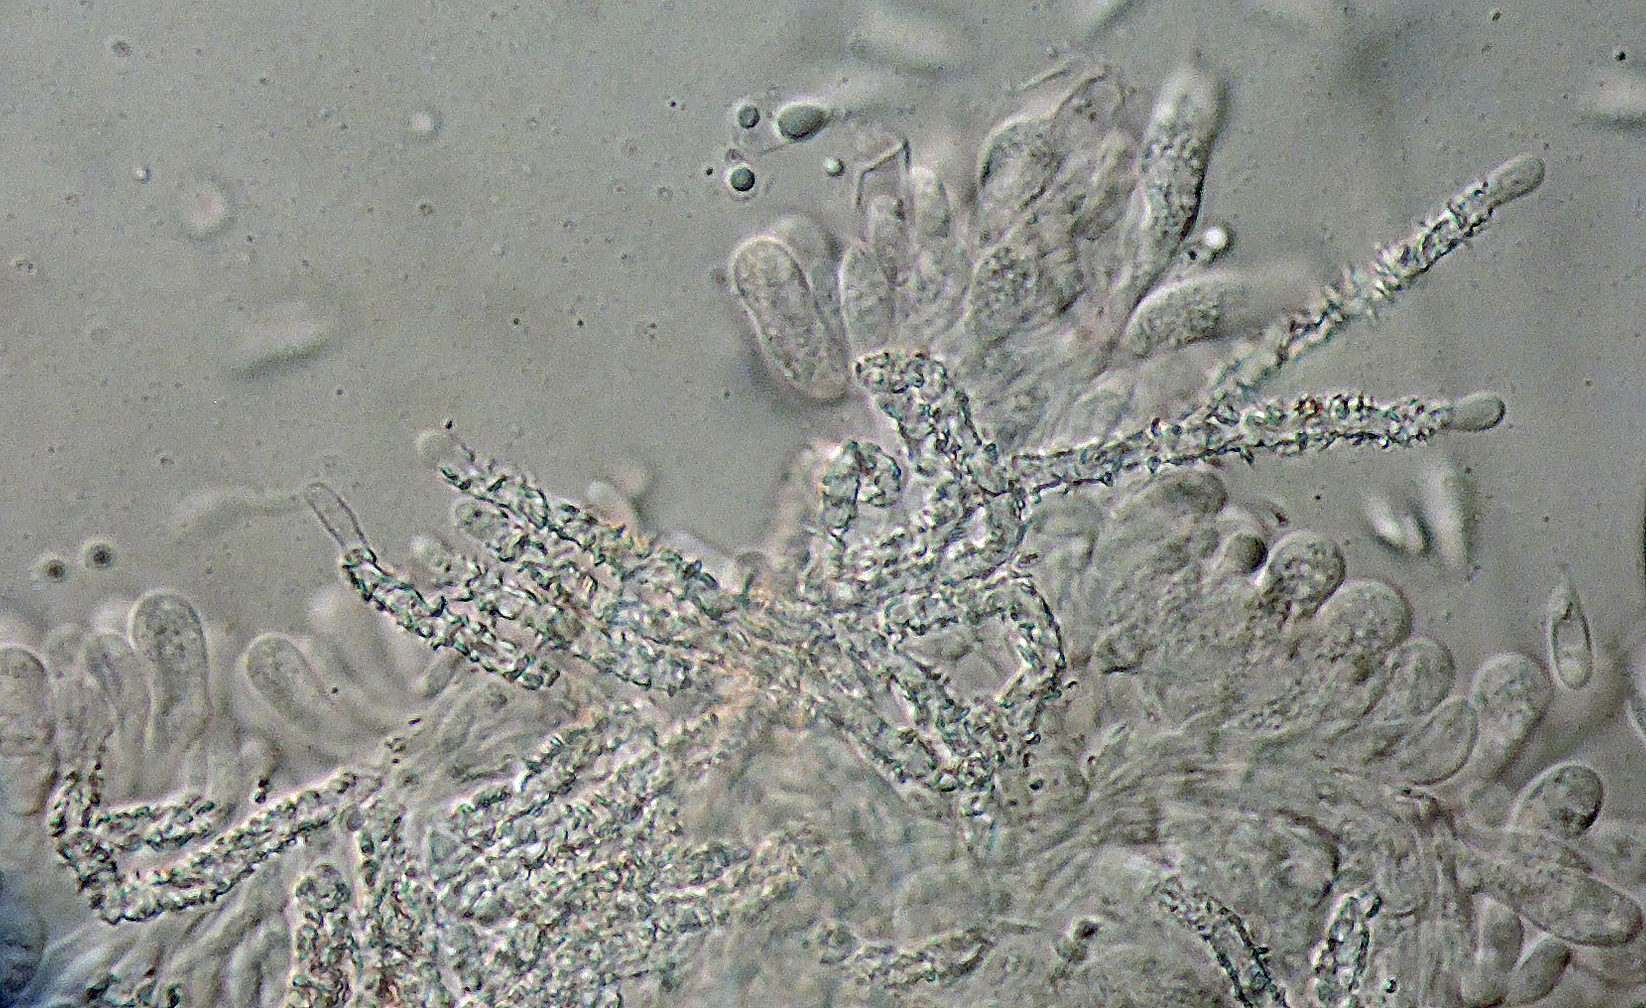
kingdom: Fungi
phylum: Basidiomycota
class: Agaricomycetes
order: Agaricales
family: Marasmiaceae
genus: Cephaloscypha
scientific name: Cephaloscypha mairei
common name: bregne-hængeskål
